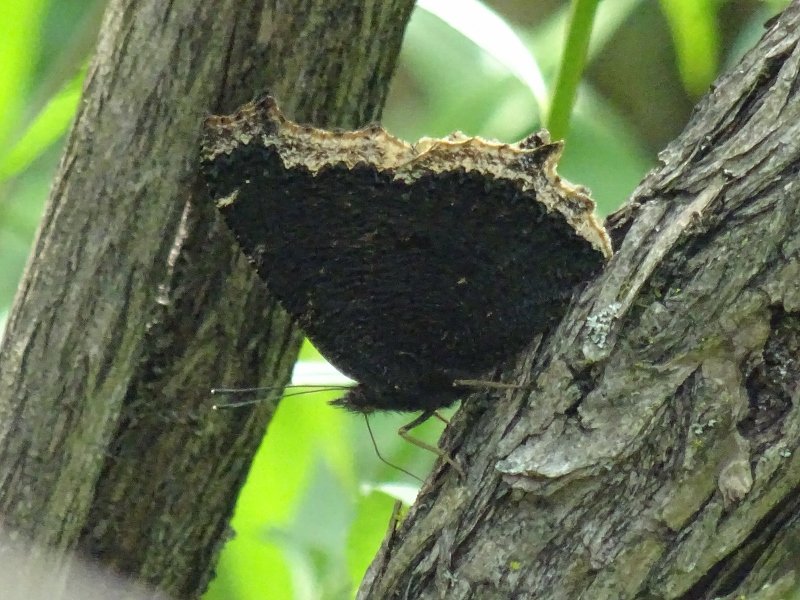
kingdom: Animalia
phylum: Arthropoda
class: Insecta
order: Lepidoptera
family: Nymphalidae
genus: Nymphalis
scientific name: Nymphalis antiopa
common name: Mourning Cloak
